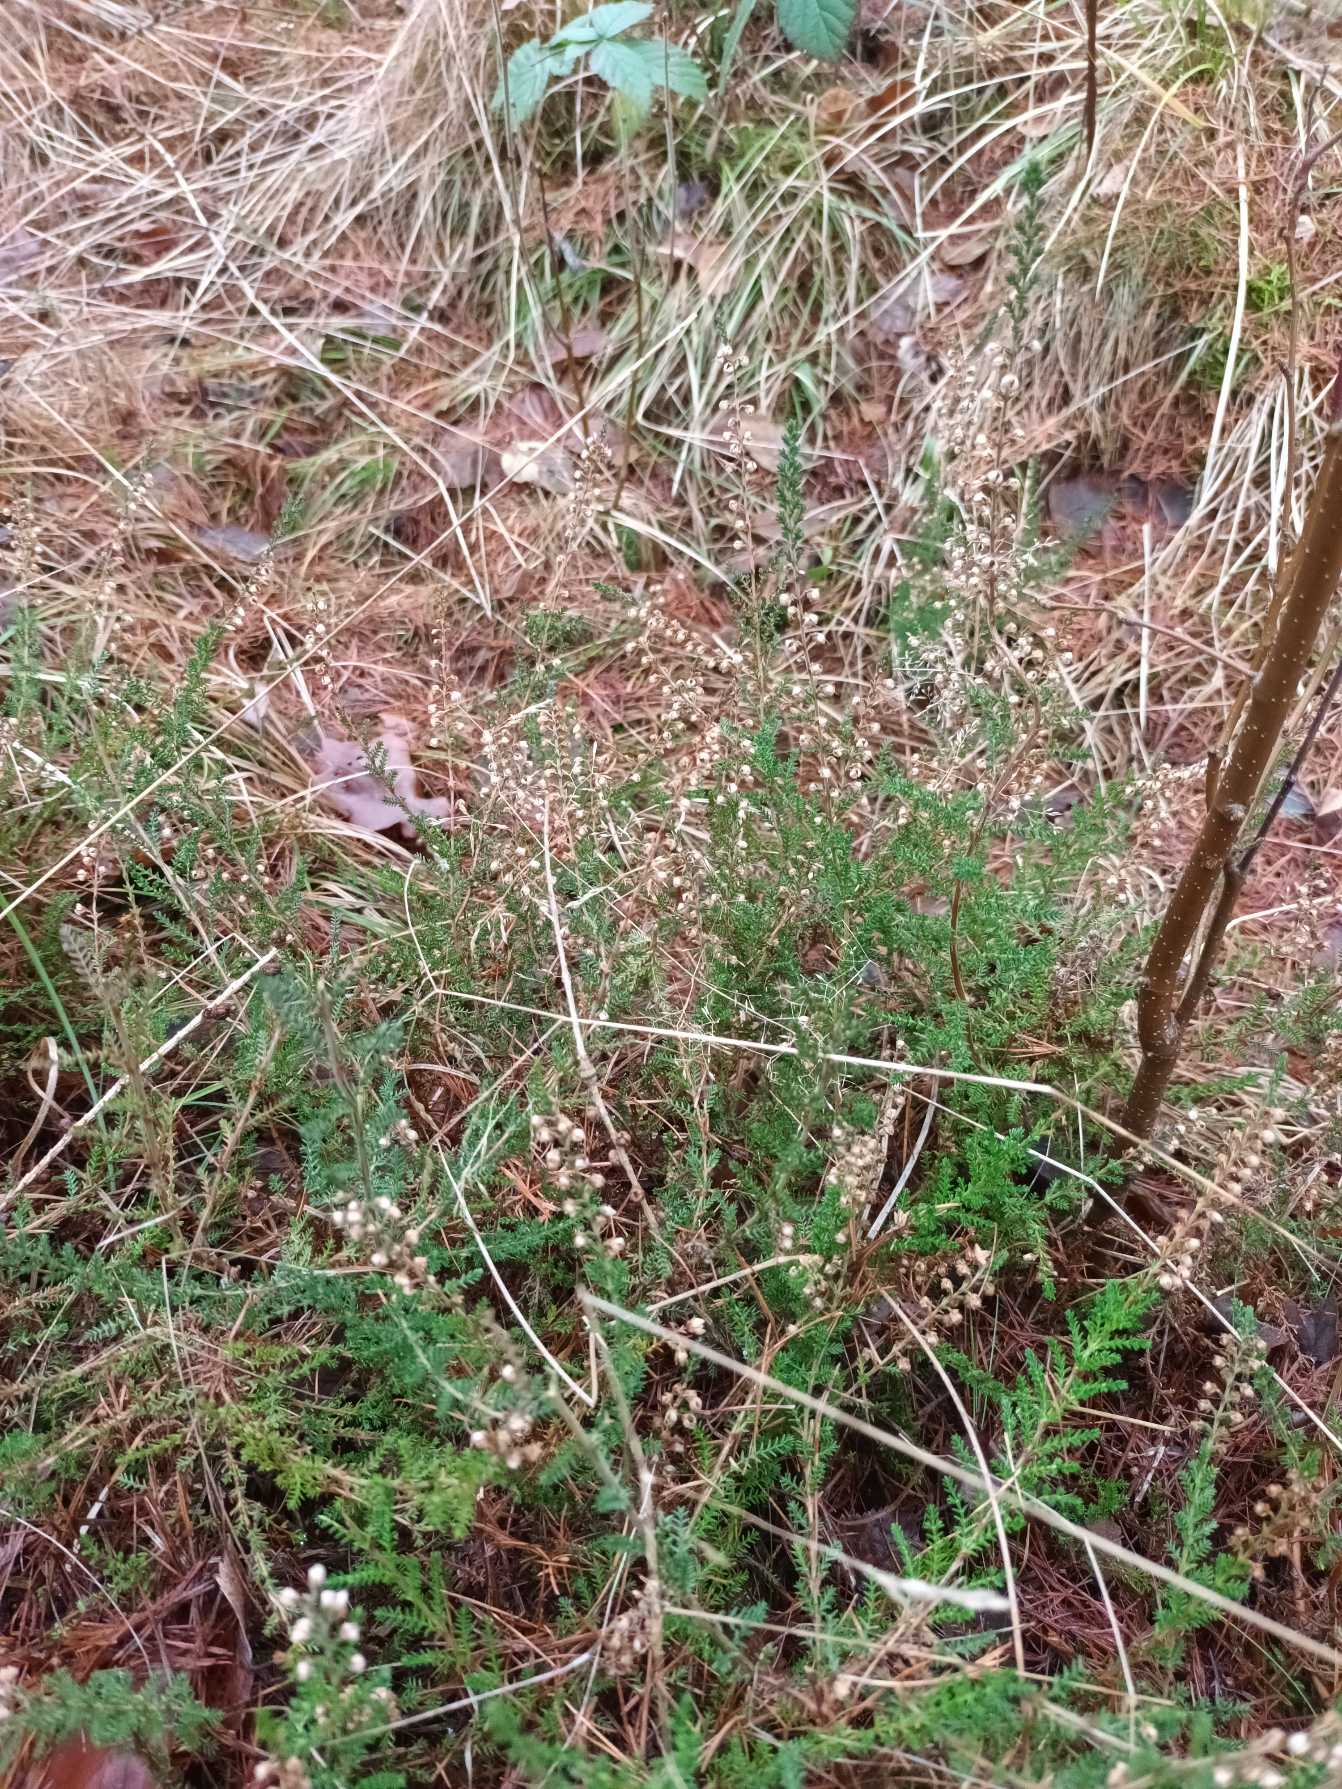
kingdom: Plantae
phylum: Tracheophyta
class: Magnoliopsida
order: Ericales
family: Ericaceae
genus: Calluna
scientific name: Calluna vulgaris
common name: Hedelyng
